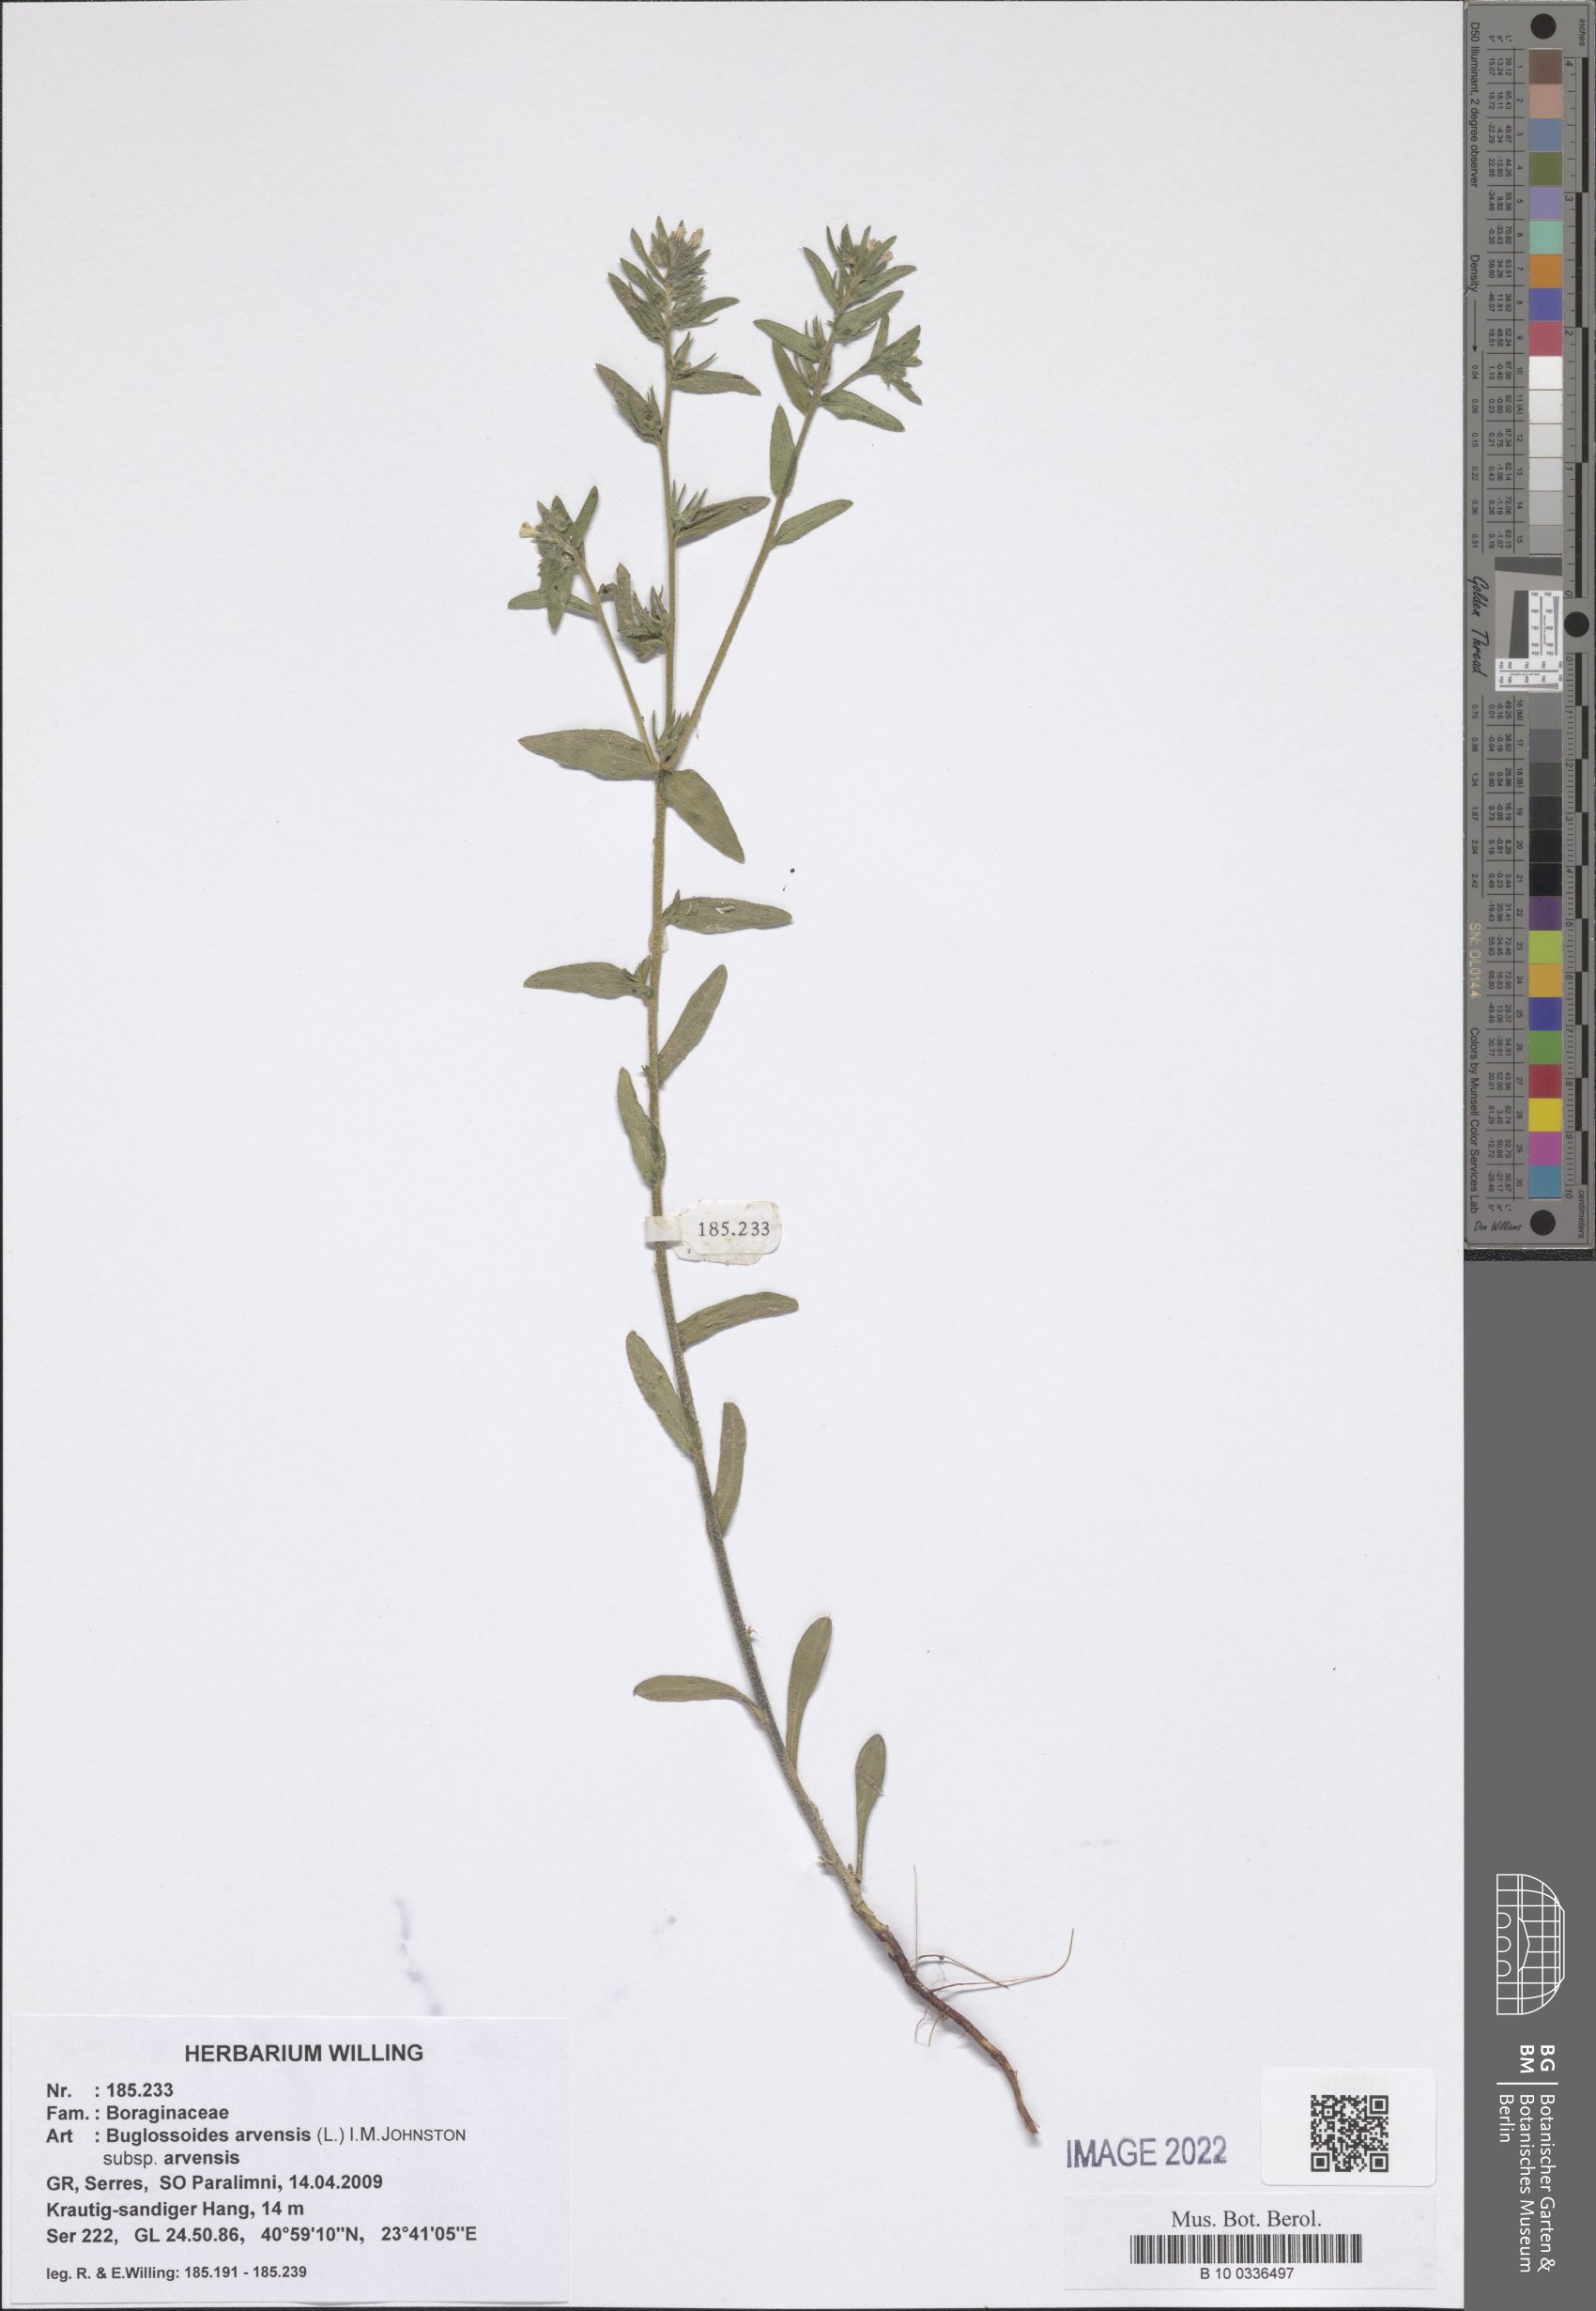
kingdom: Plantae
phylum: Tracheophyta
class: Magnoliopsida
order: Boraginales
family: Boraginaceae
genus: Buglossoides
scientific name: Buglossoides arvensis
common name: Corn gromwell
